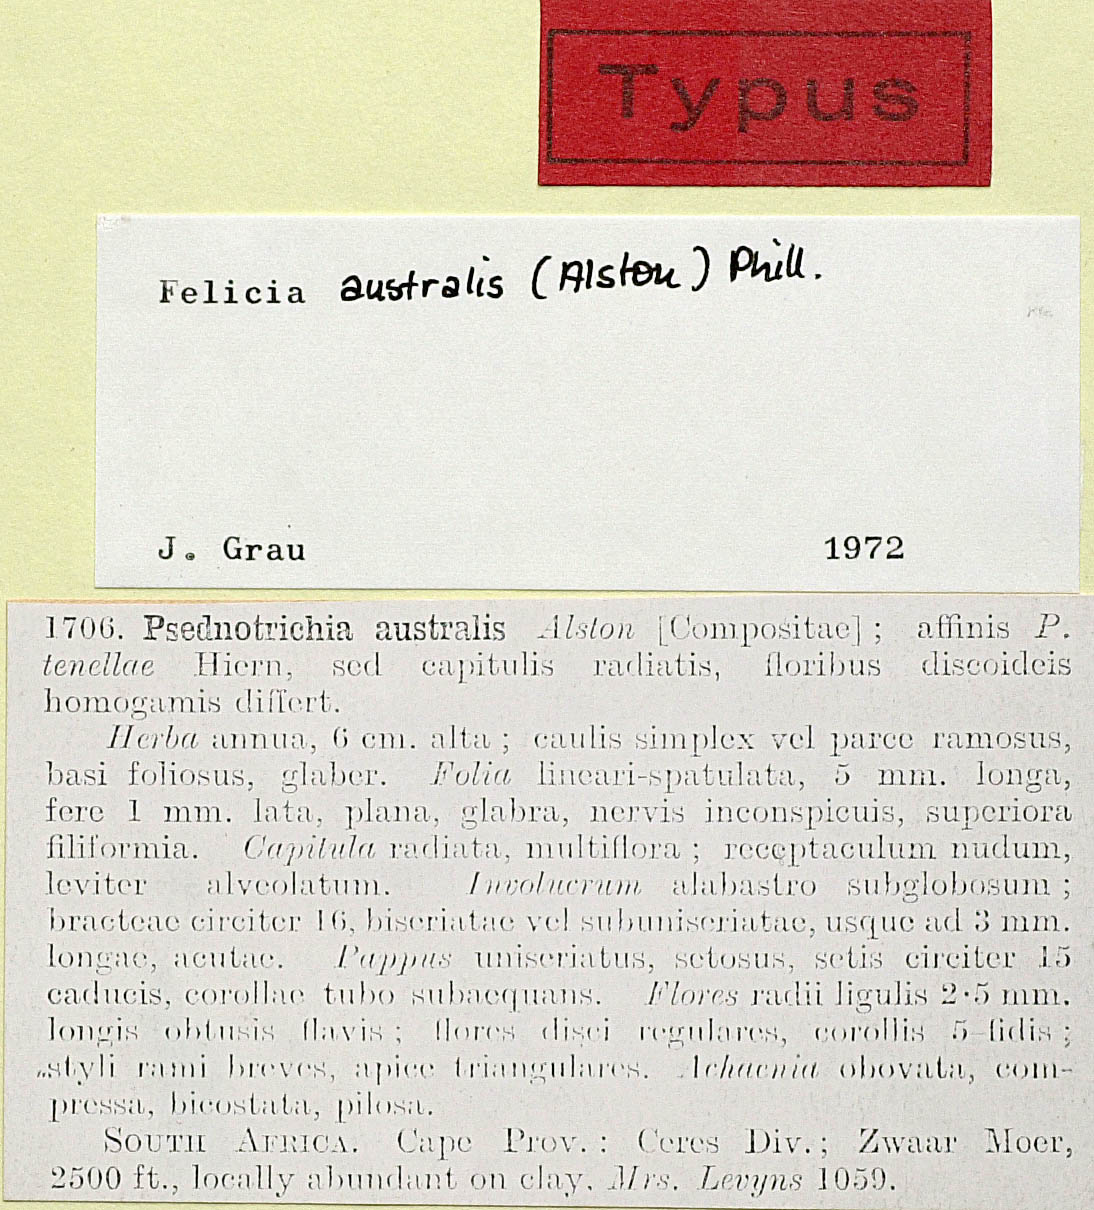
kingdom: Plantae
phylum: Tracheophyta
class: Magnoliopsida
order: Asterales
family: Asteraceae
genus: Felicia
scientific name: Felicia australia
